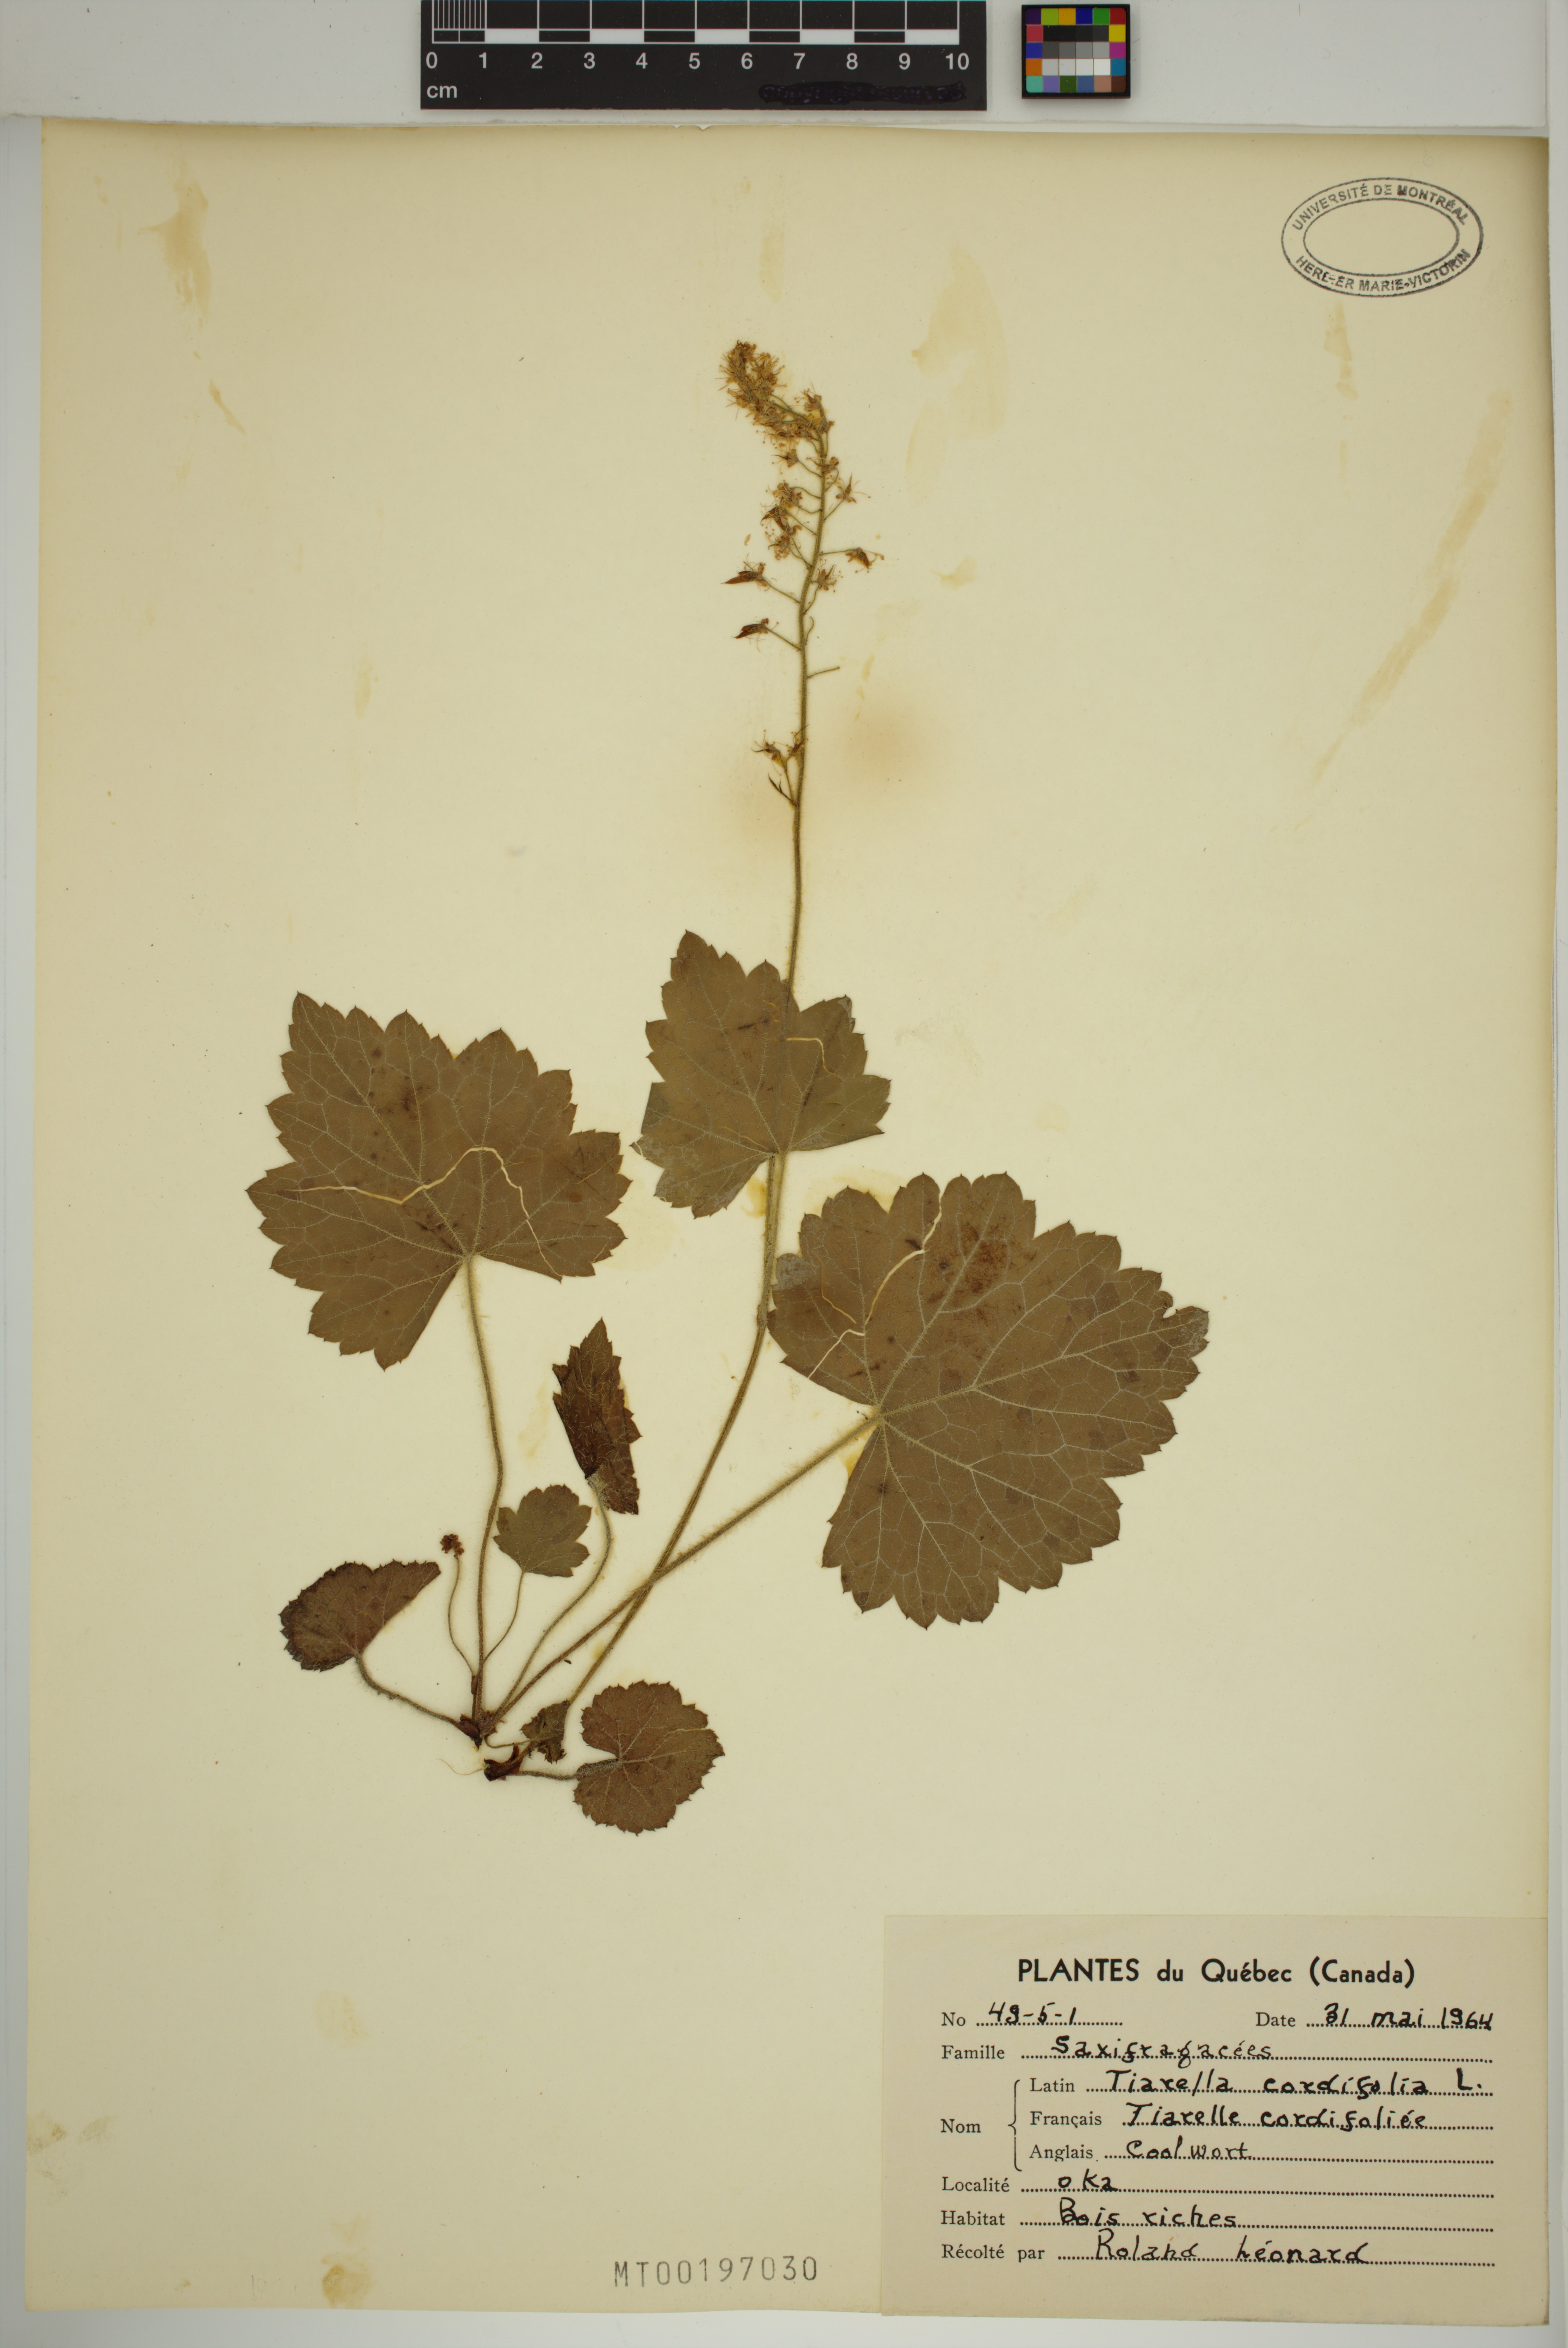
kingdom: Plantae
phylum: Tracheophyta
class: Magnoliopsida
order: Saxifragales
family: Saxifragaceae
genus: Tiarella
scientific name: Tiarella cordifolia
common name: Foamflower
